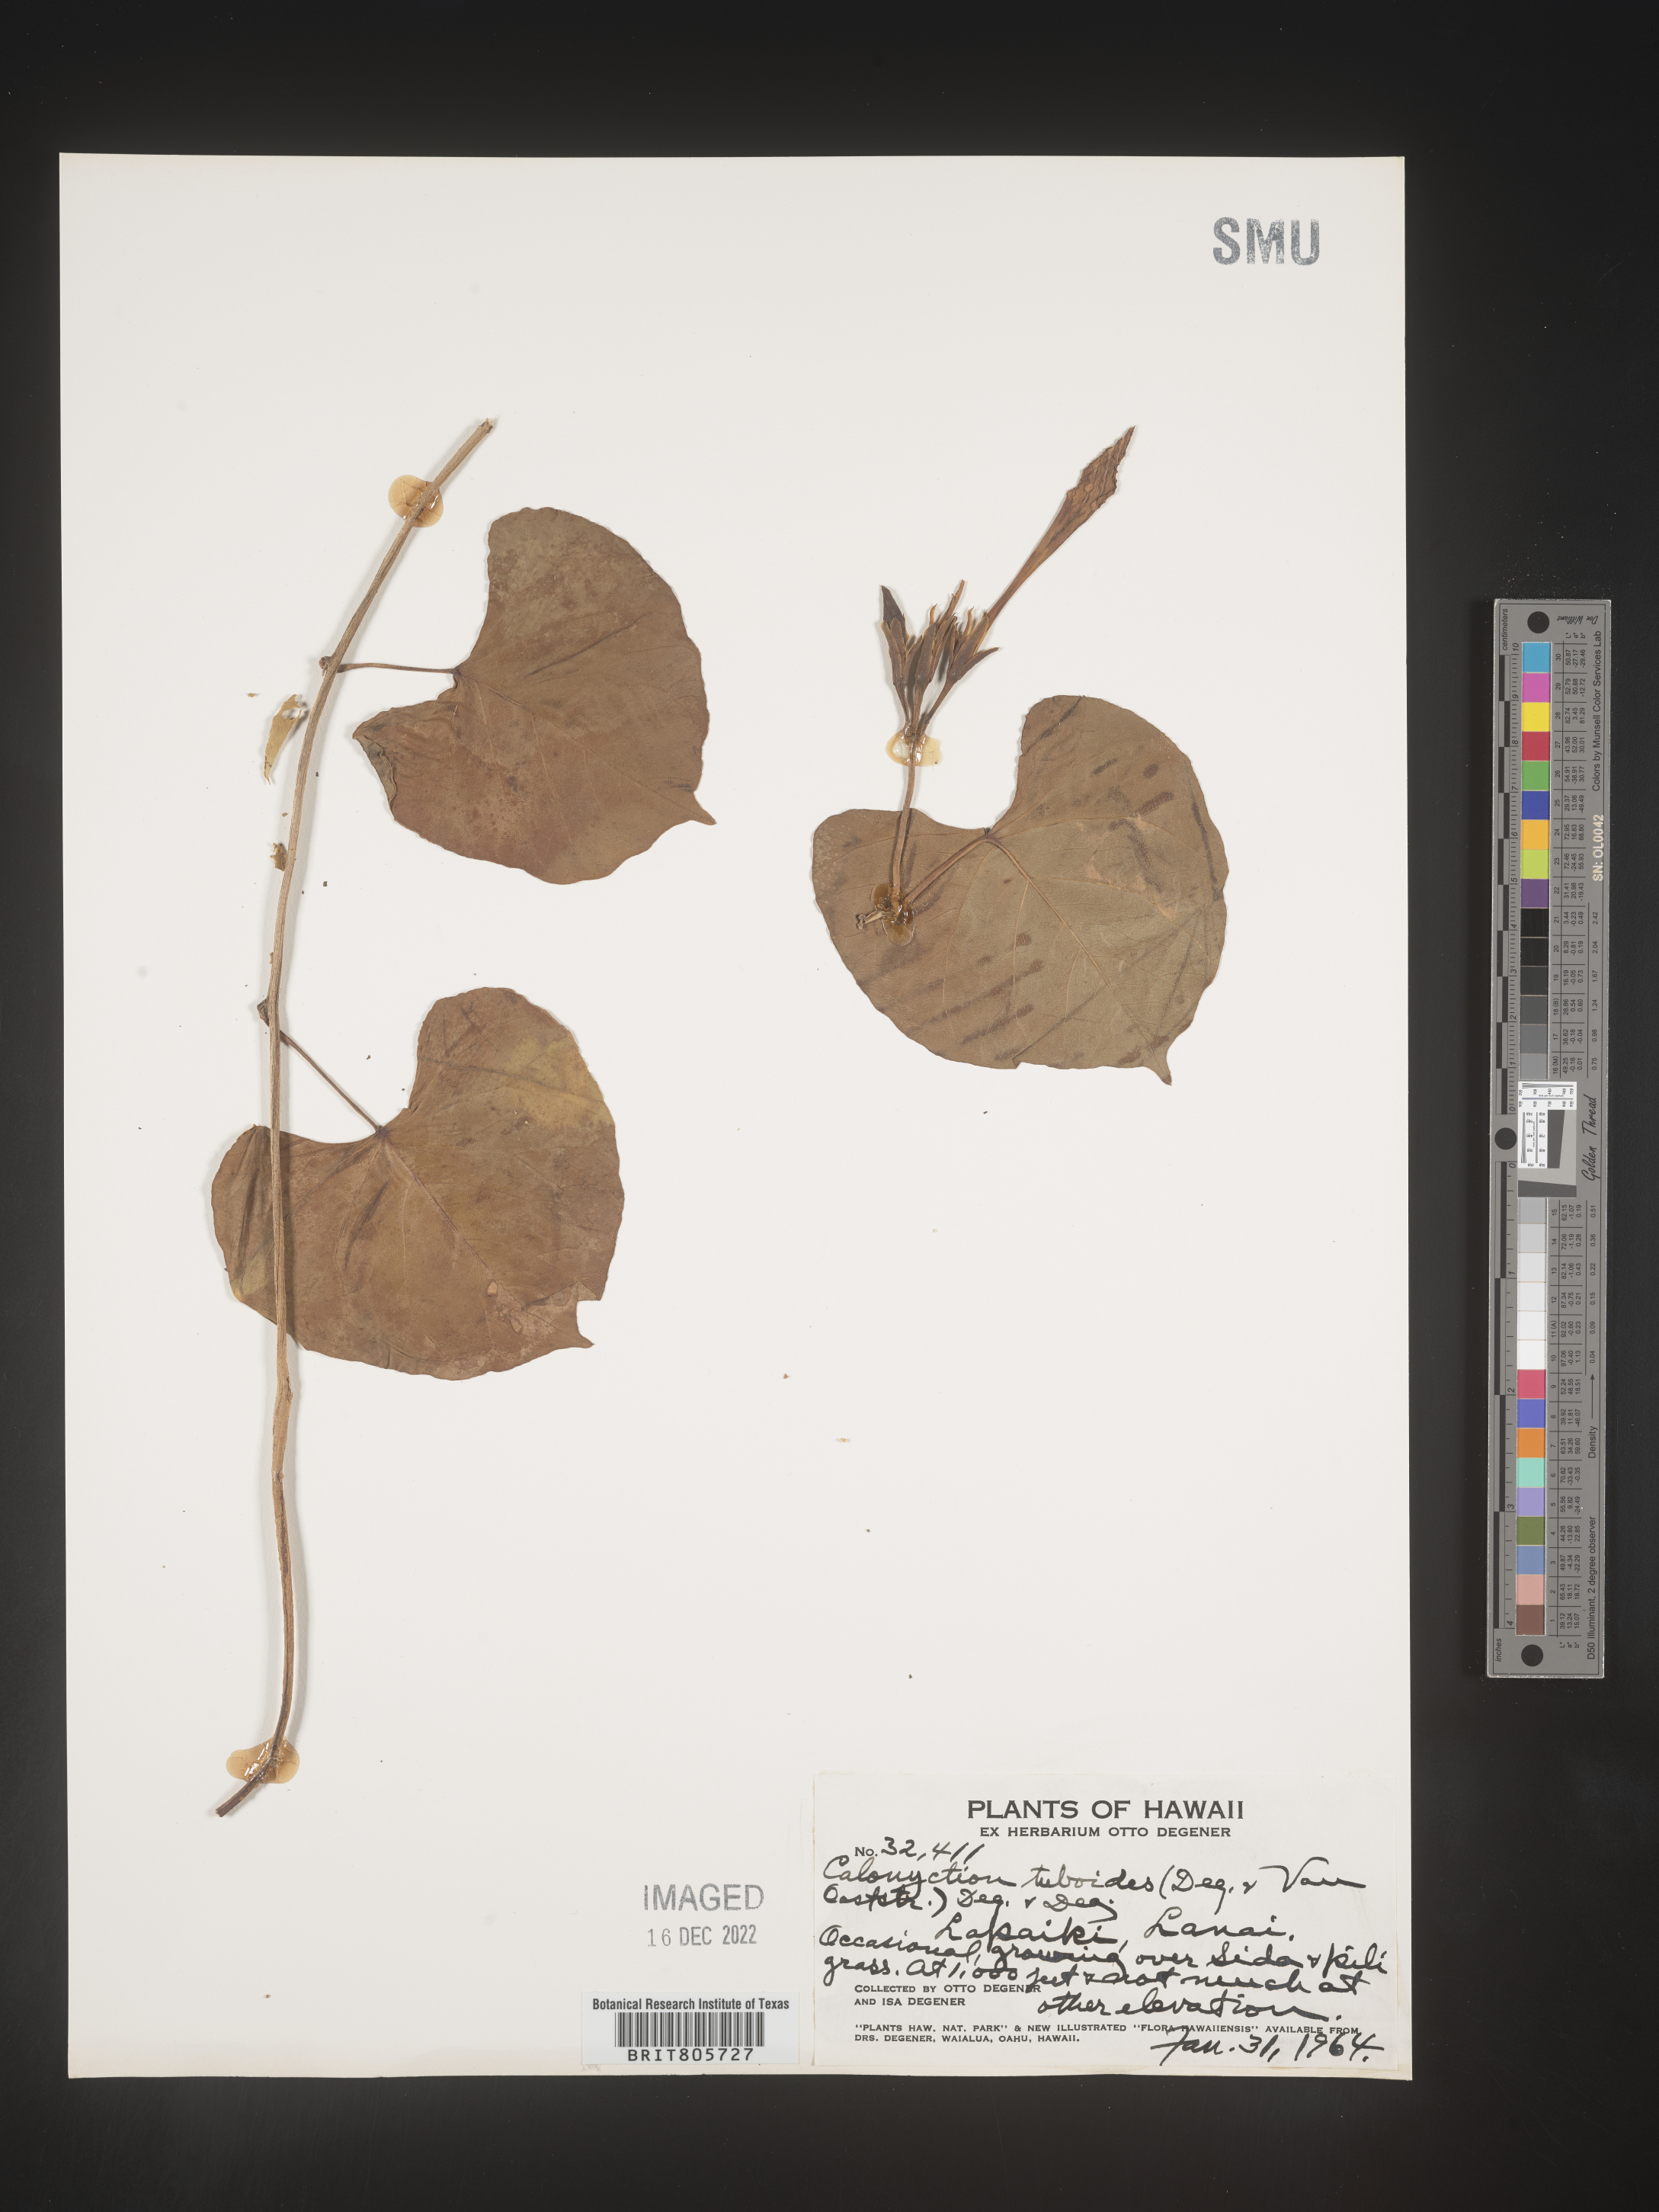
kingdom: Plantae
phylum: Tracheophyta
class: Magnoliopsida
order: Solanales
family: Convolvulaceae
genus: Ipomoea
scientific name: Ipomoea
